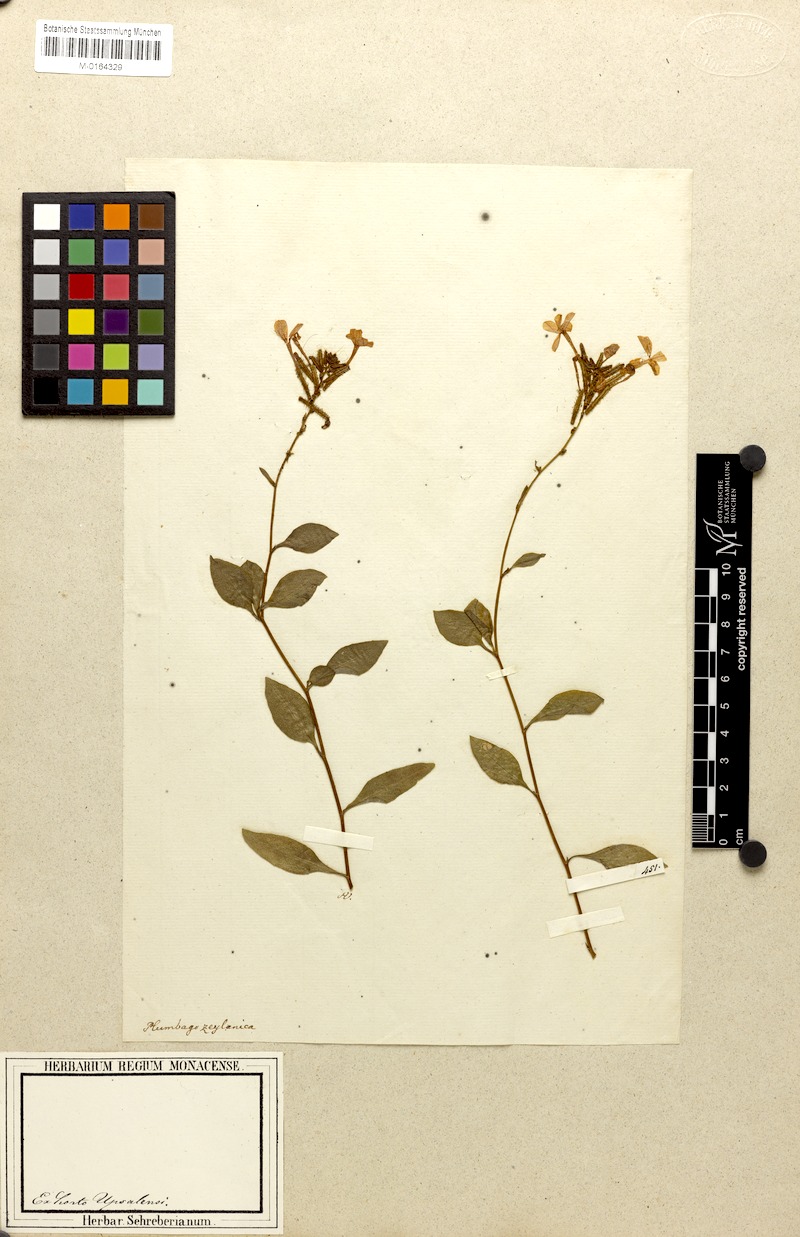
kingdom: Plantae
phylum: Tracheophyta
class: Magnoliopsida
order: Caryophyllales
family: Plumbaginaceae
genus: Plumbago
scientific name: Plumbago zeylanica
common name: Doctorbush
